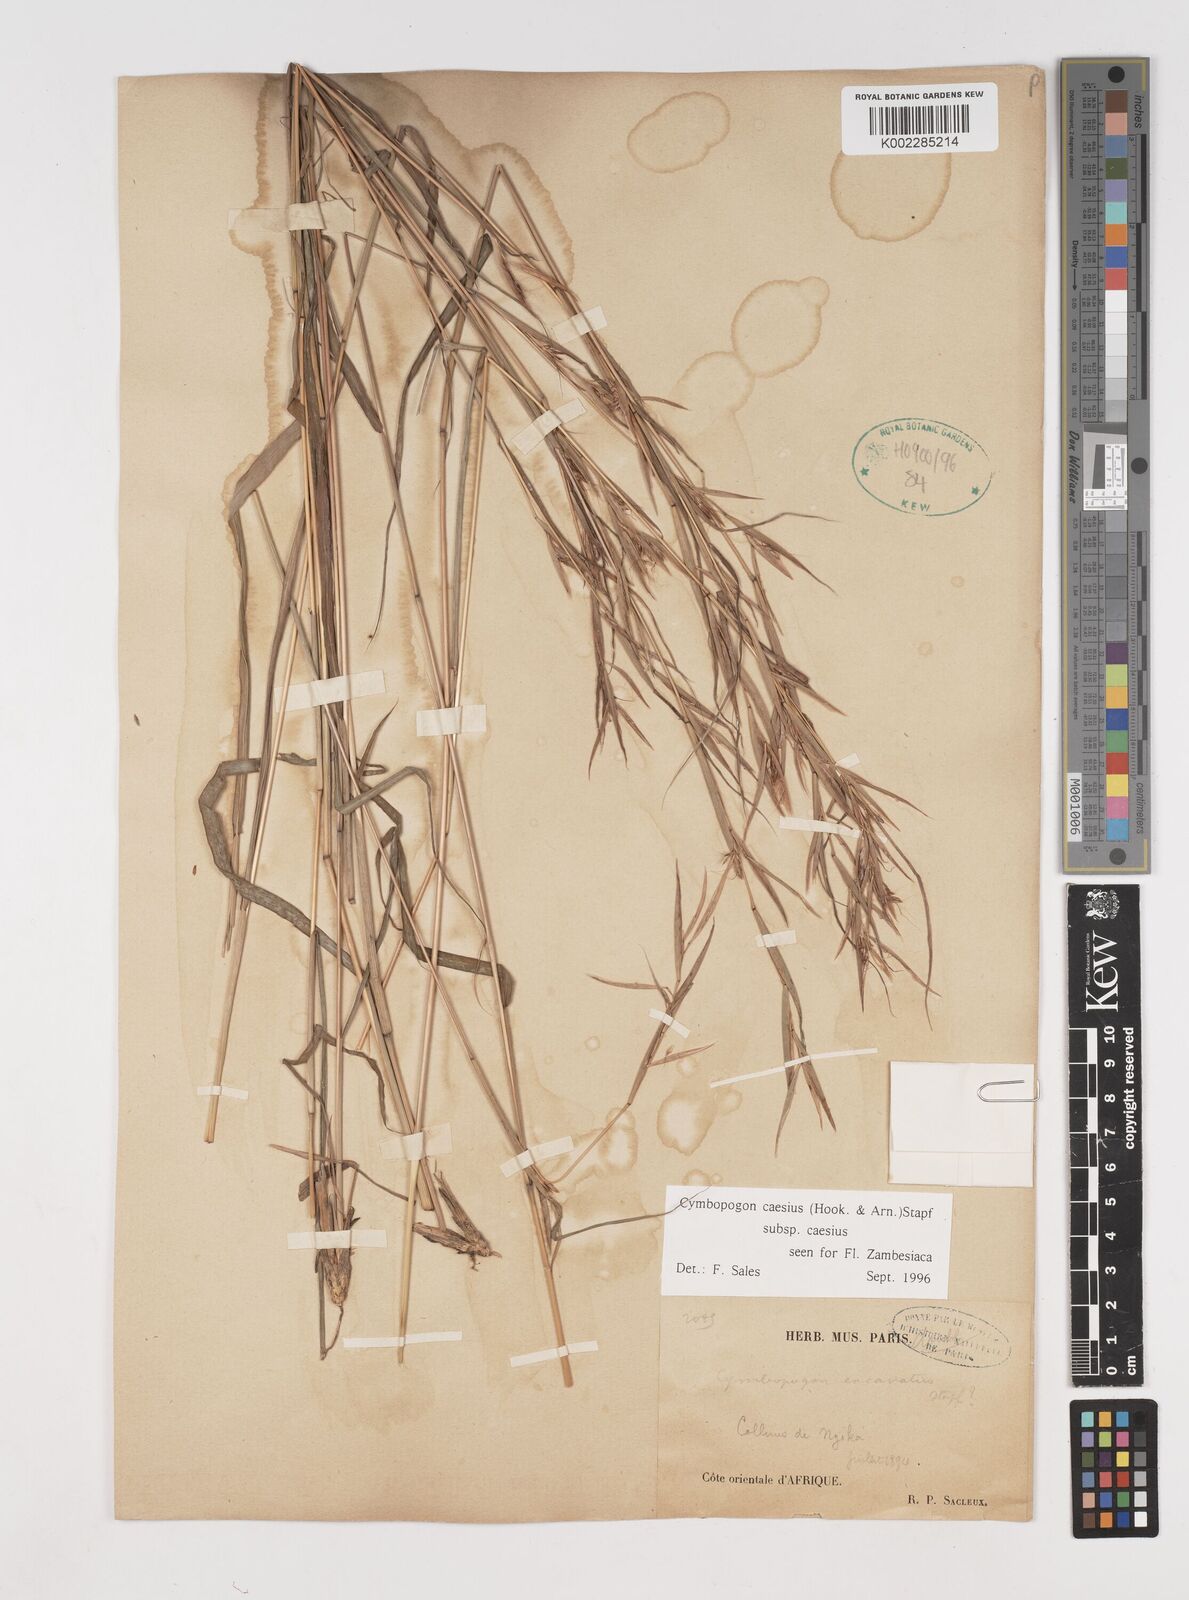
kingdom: Plantae
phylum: Tracheophyta
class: Liliopsida
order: Poales
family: Poaceae
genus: Cymbopogon
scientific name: Cymbopogon caesius
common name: Kachi grass
